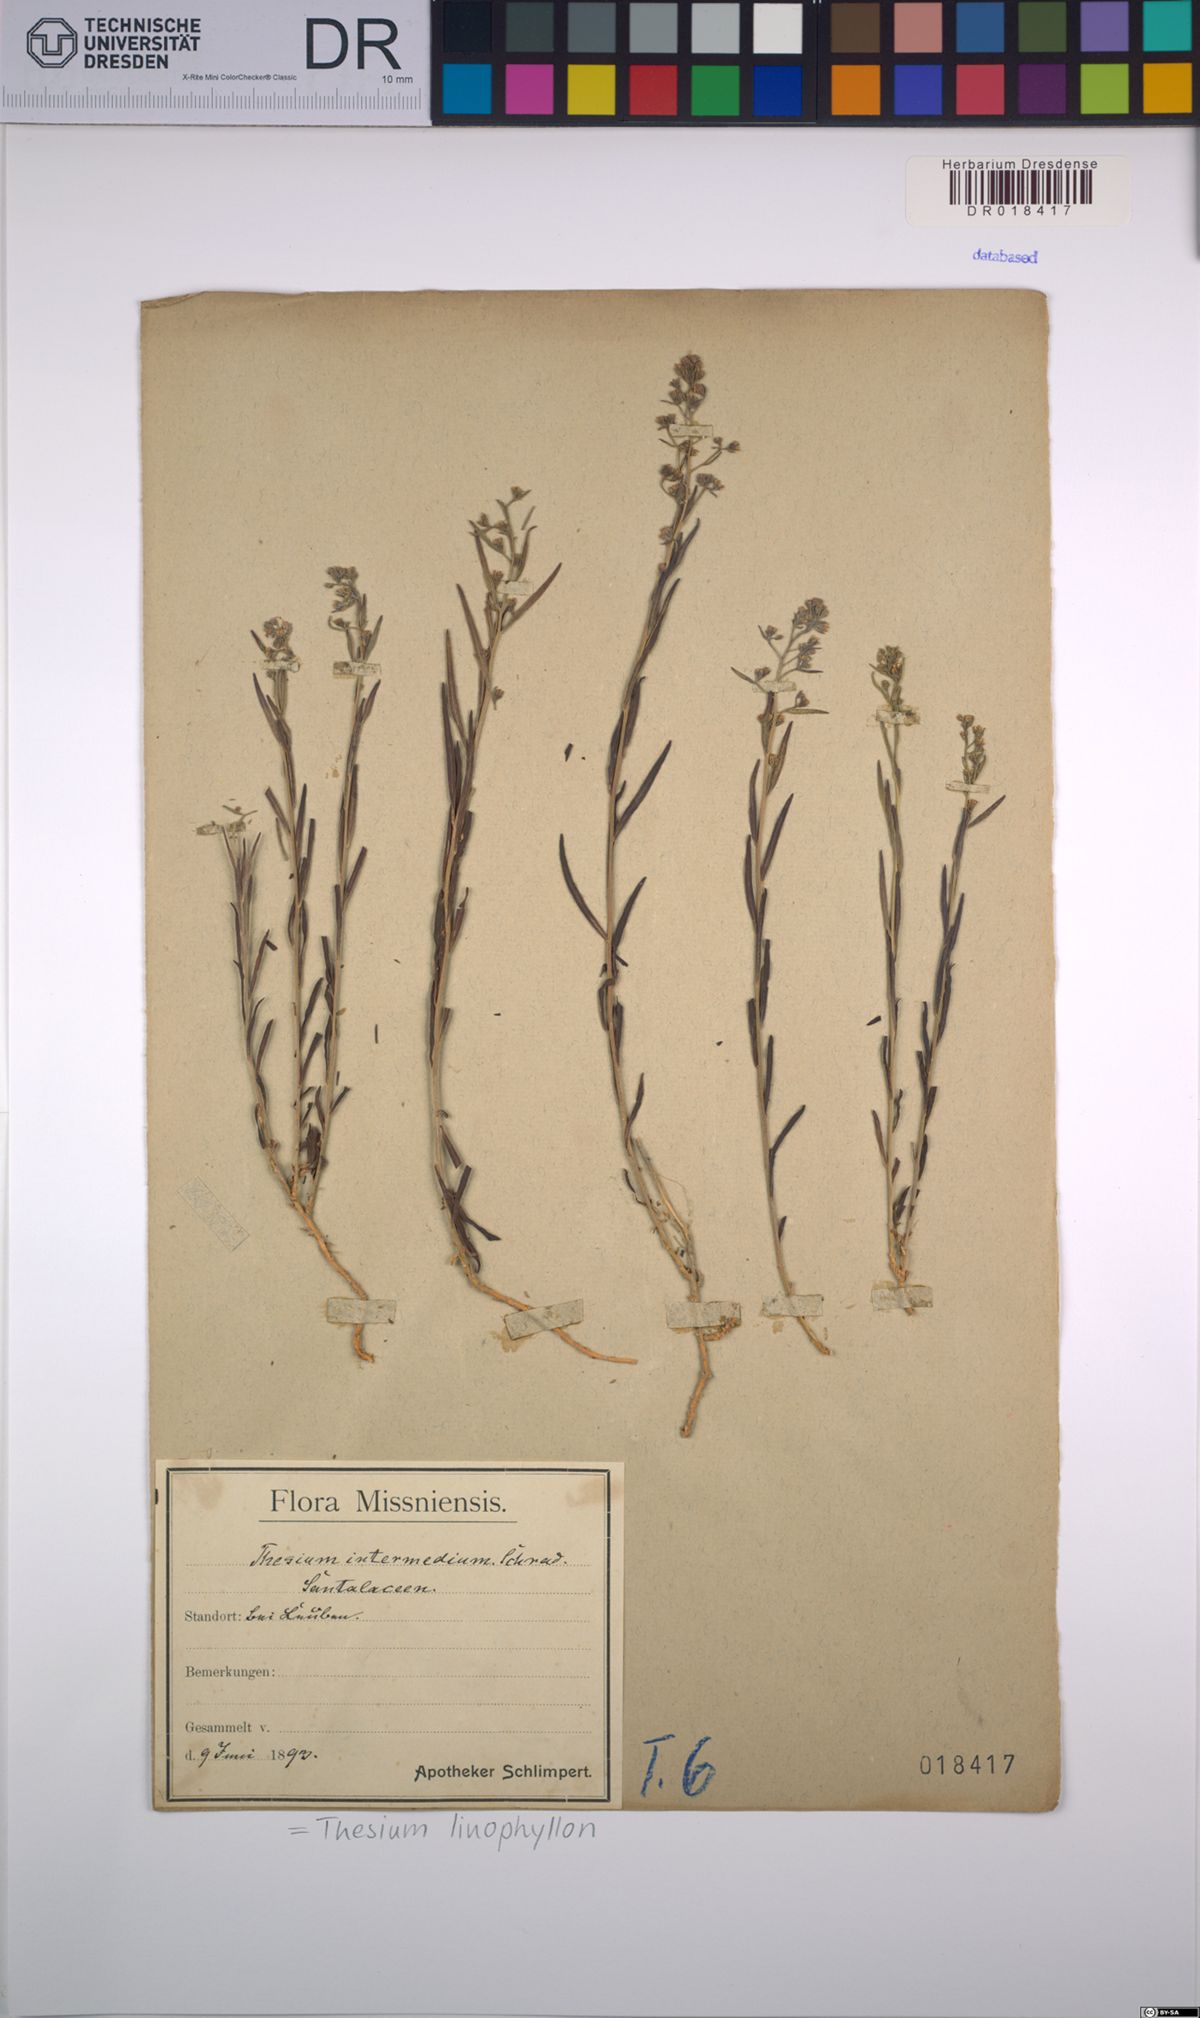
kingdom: Plantae
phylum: Tracheophyta
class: Magnoliopsida
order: Santalales
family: Thesiaceae
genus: Thesium
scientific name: Thesium linophyllon
